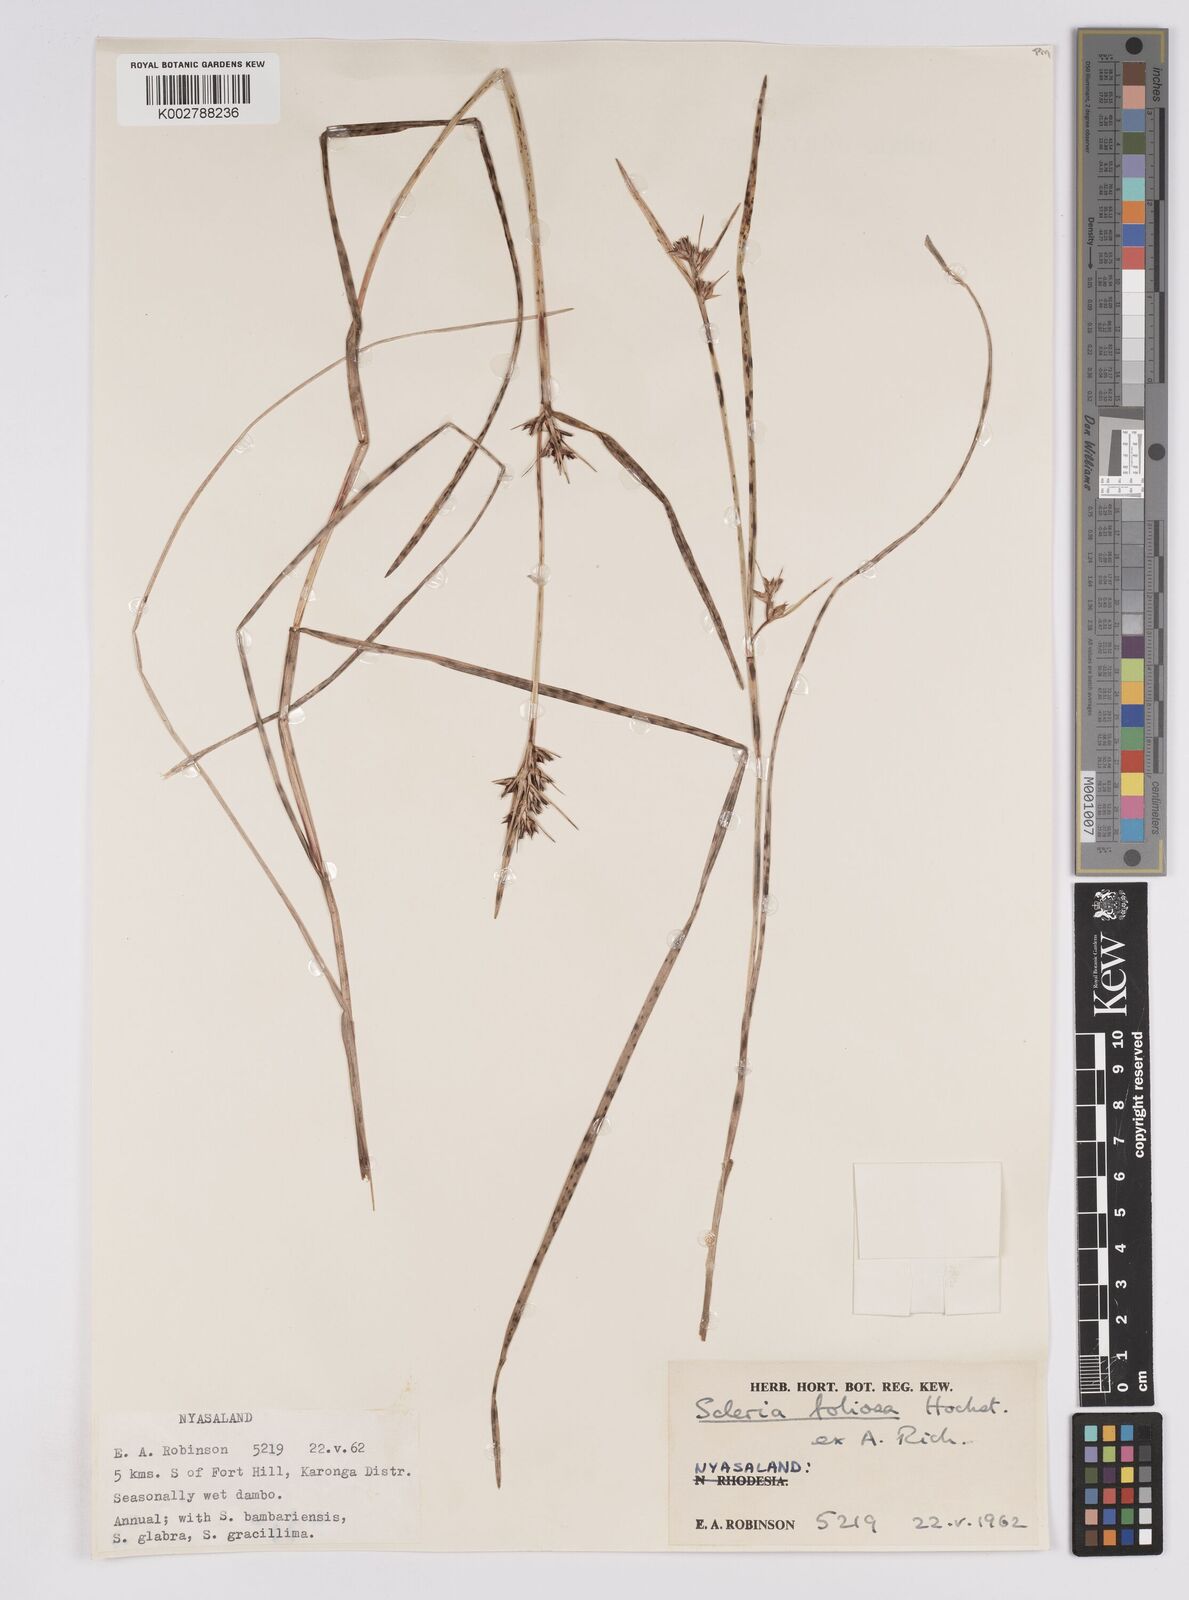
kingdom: Plantae
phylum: Tracheophyta
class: Liliopsida
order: Poales
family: Cyperaceae
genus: Scleria
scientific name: Scleria foliosa
